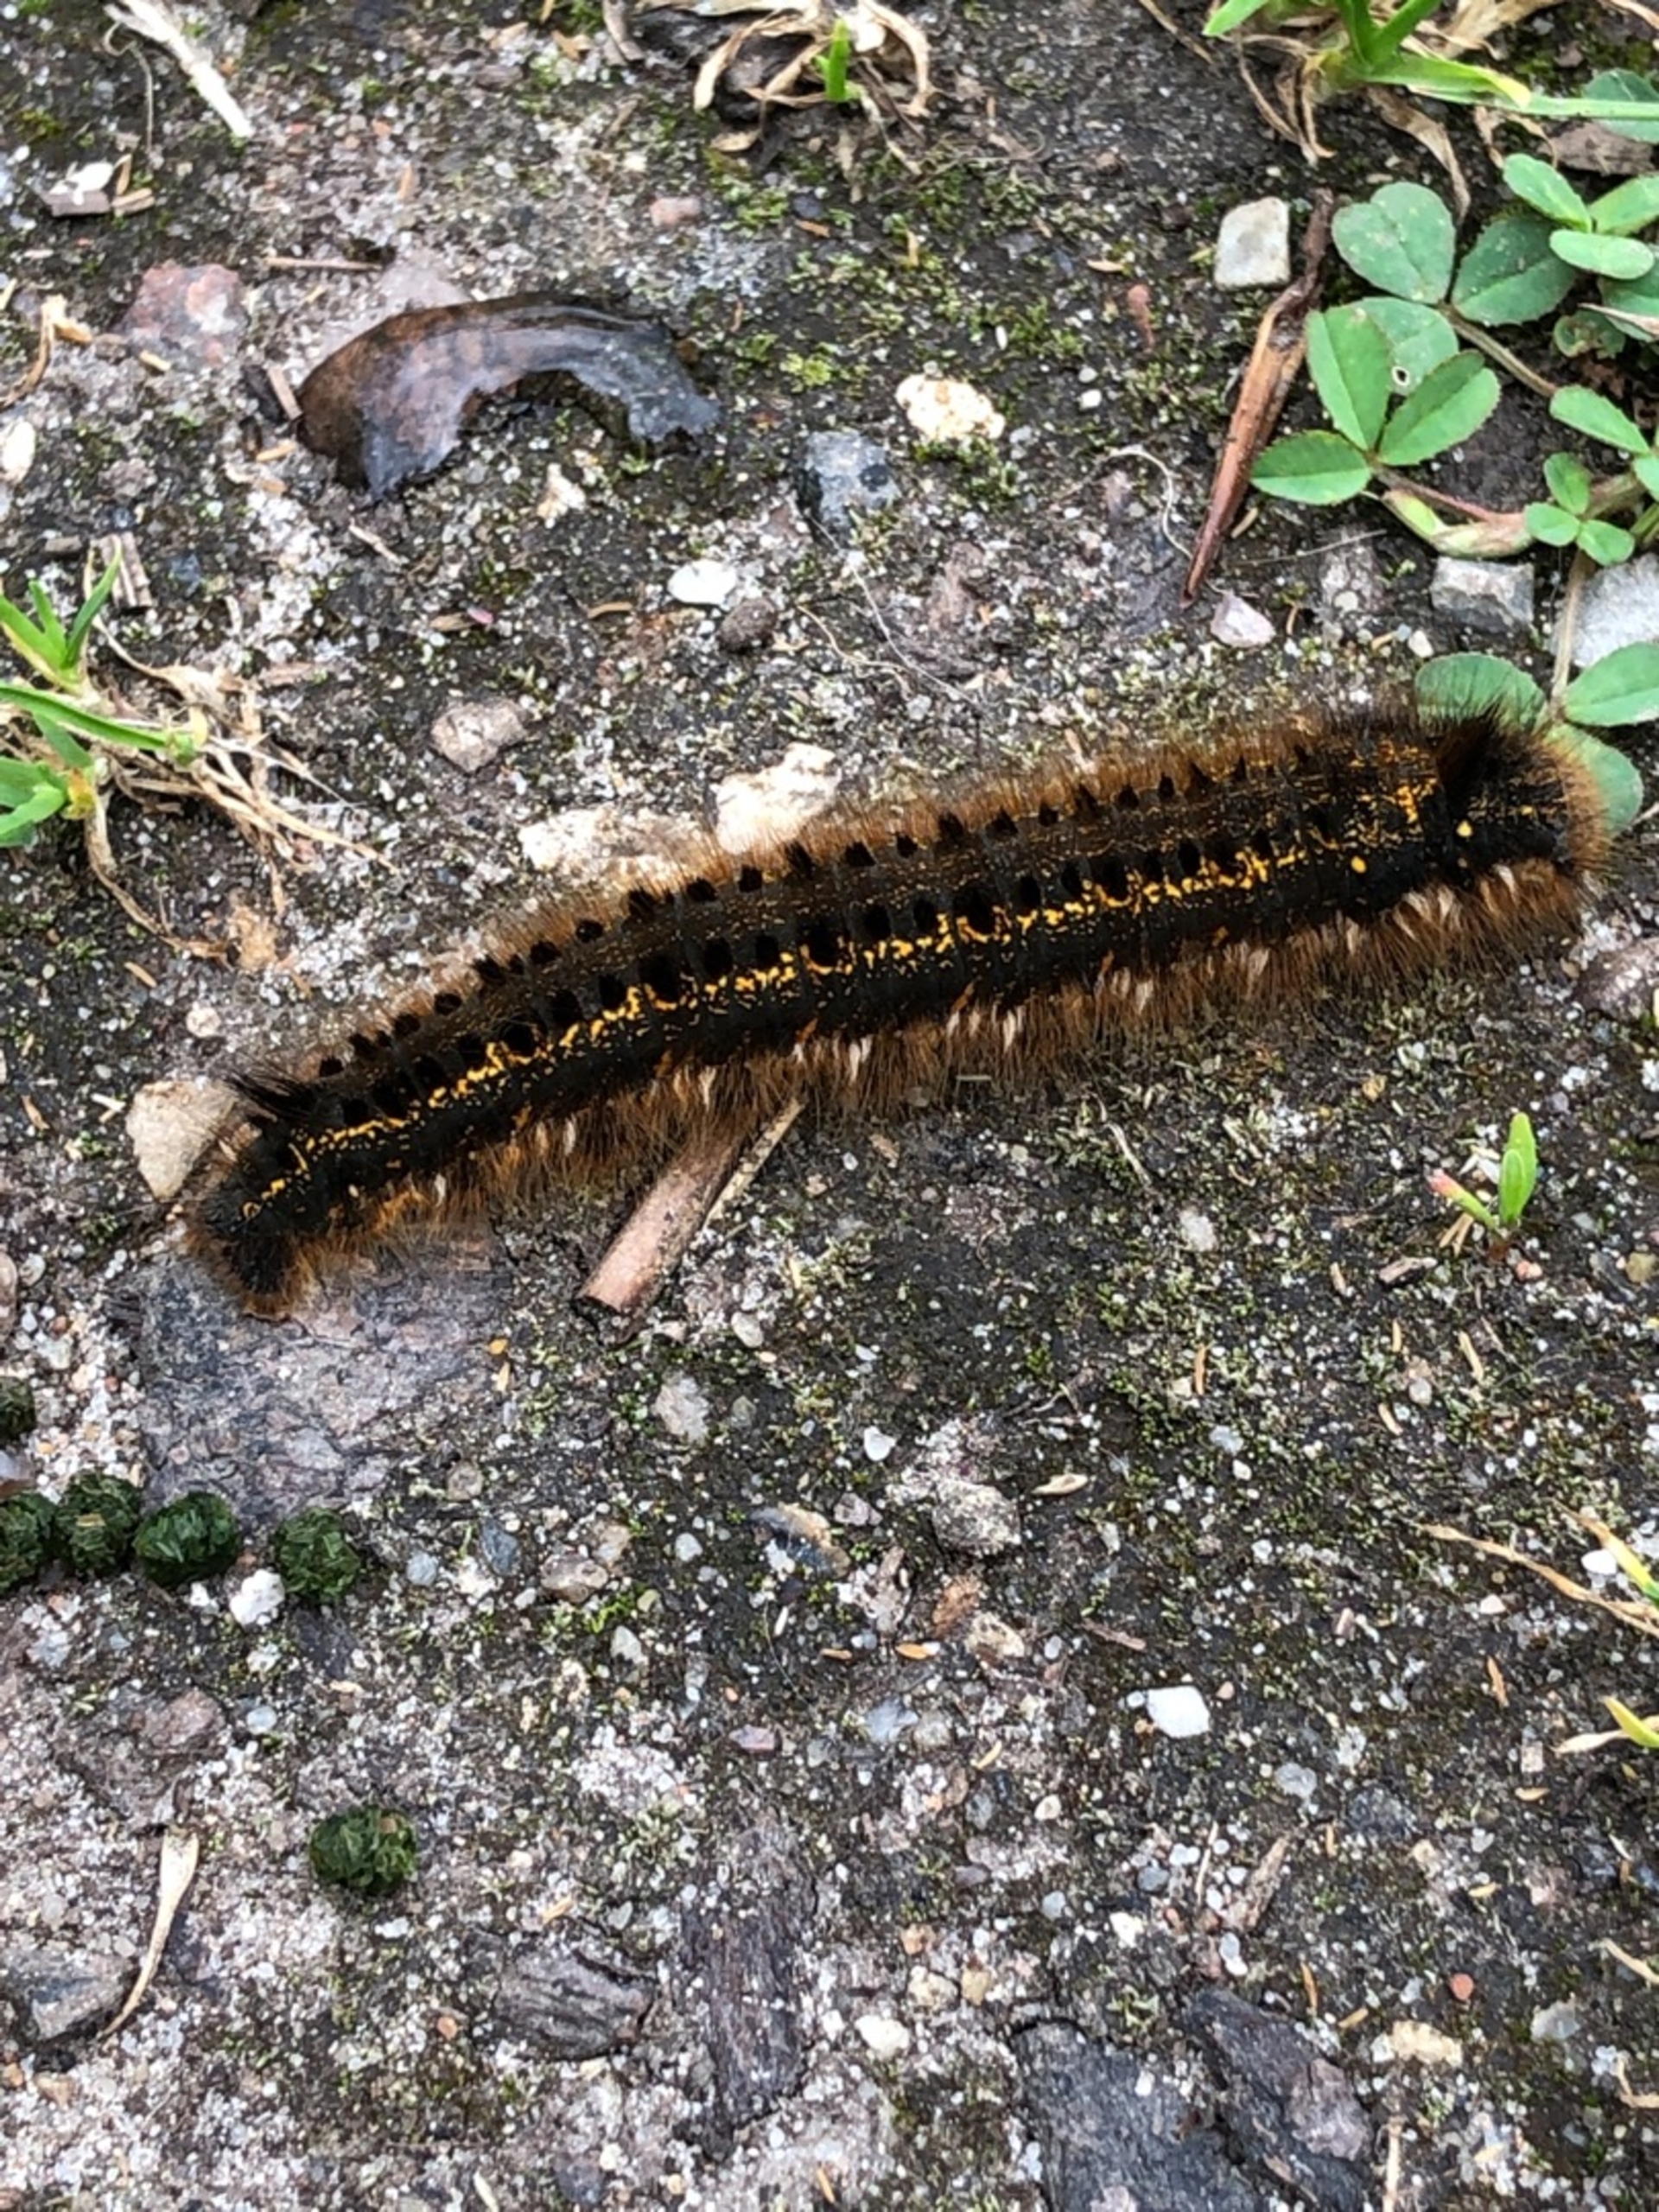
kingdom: Animalia
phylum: Arthropoda
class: Insecta
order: Lepidoptera
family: Lasiocampidae
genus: Euthrix
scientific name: Euthrix potatoria
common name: Græsspinder
